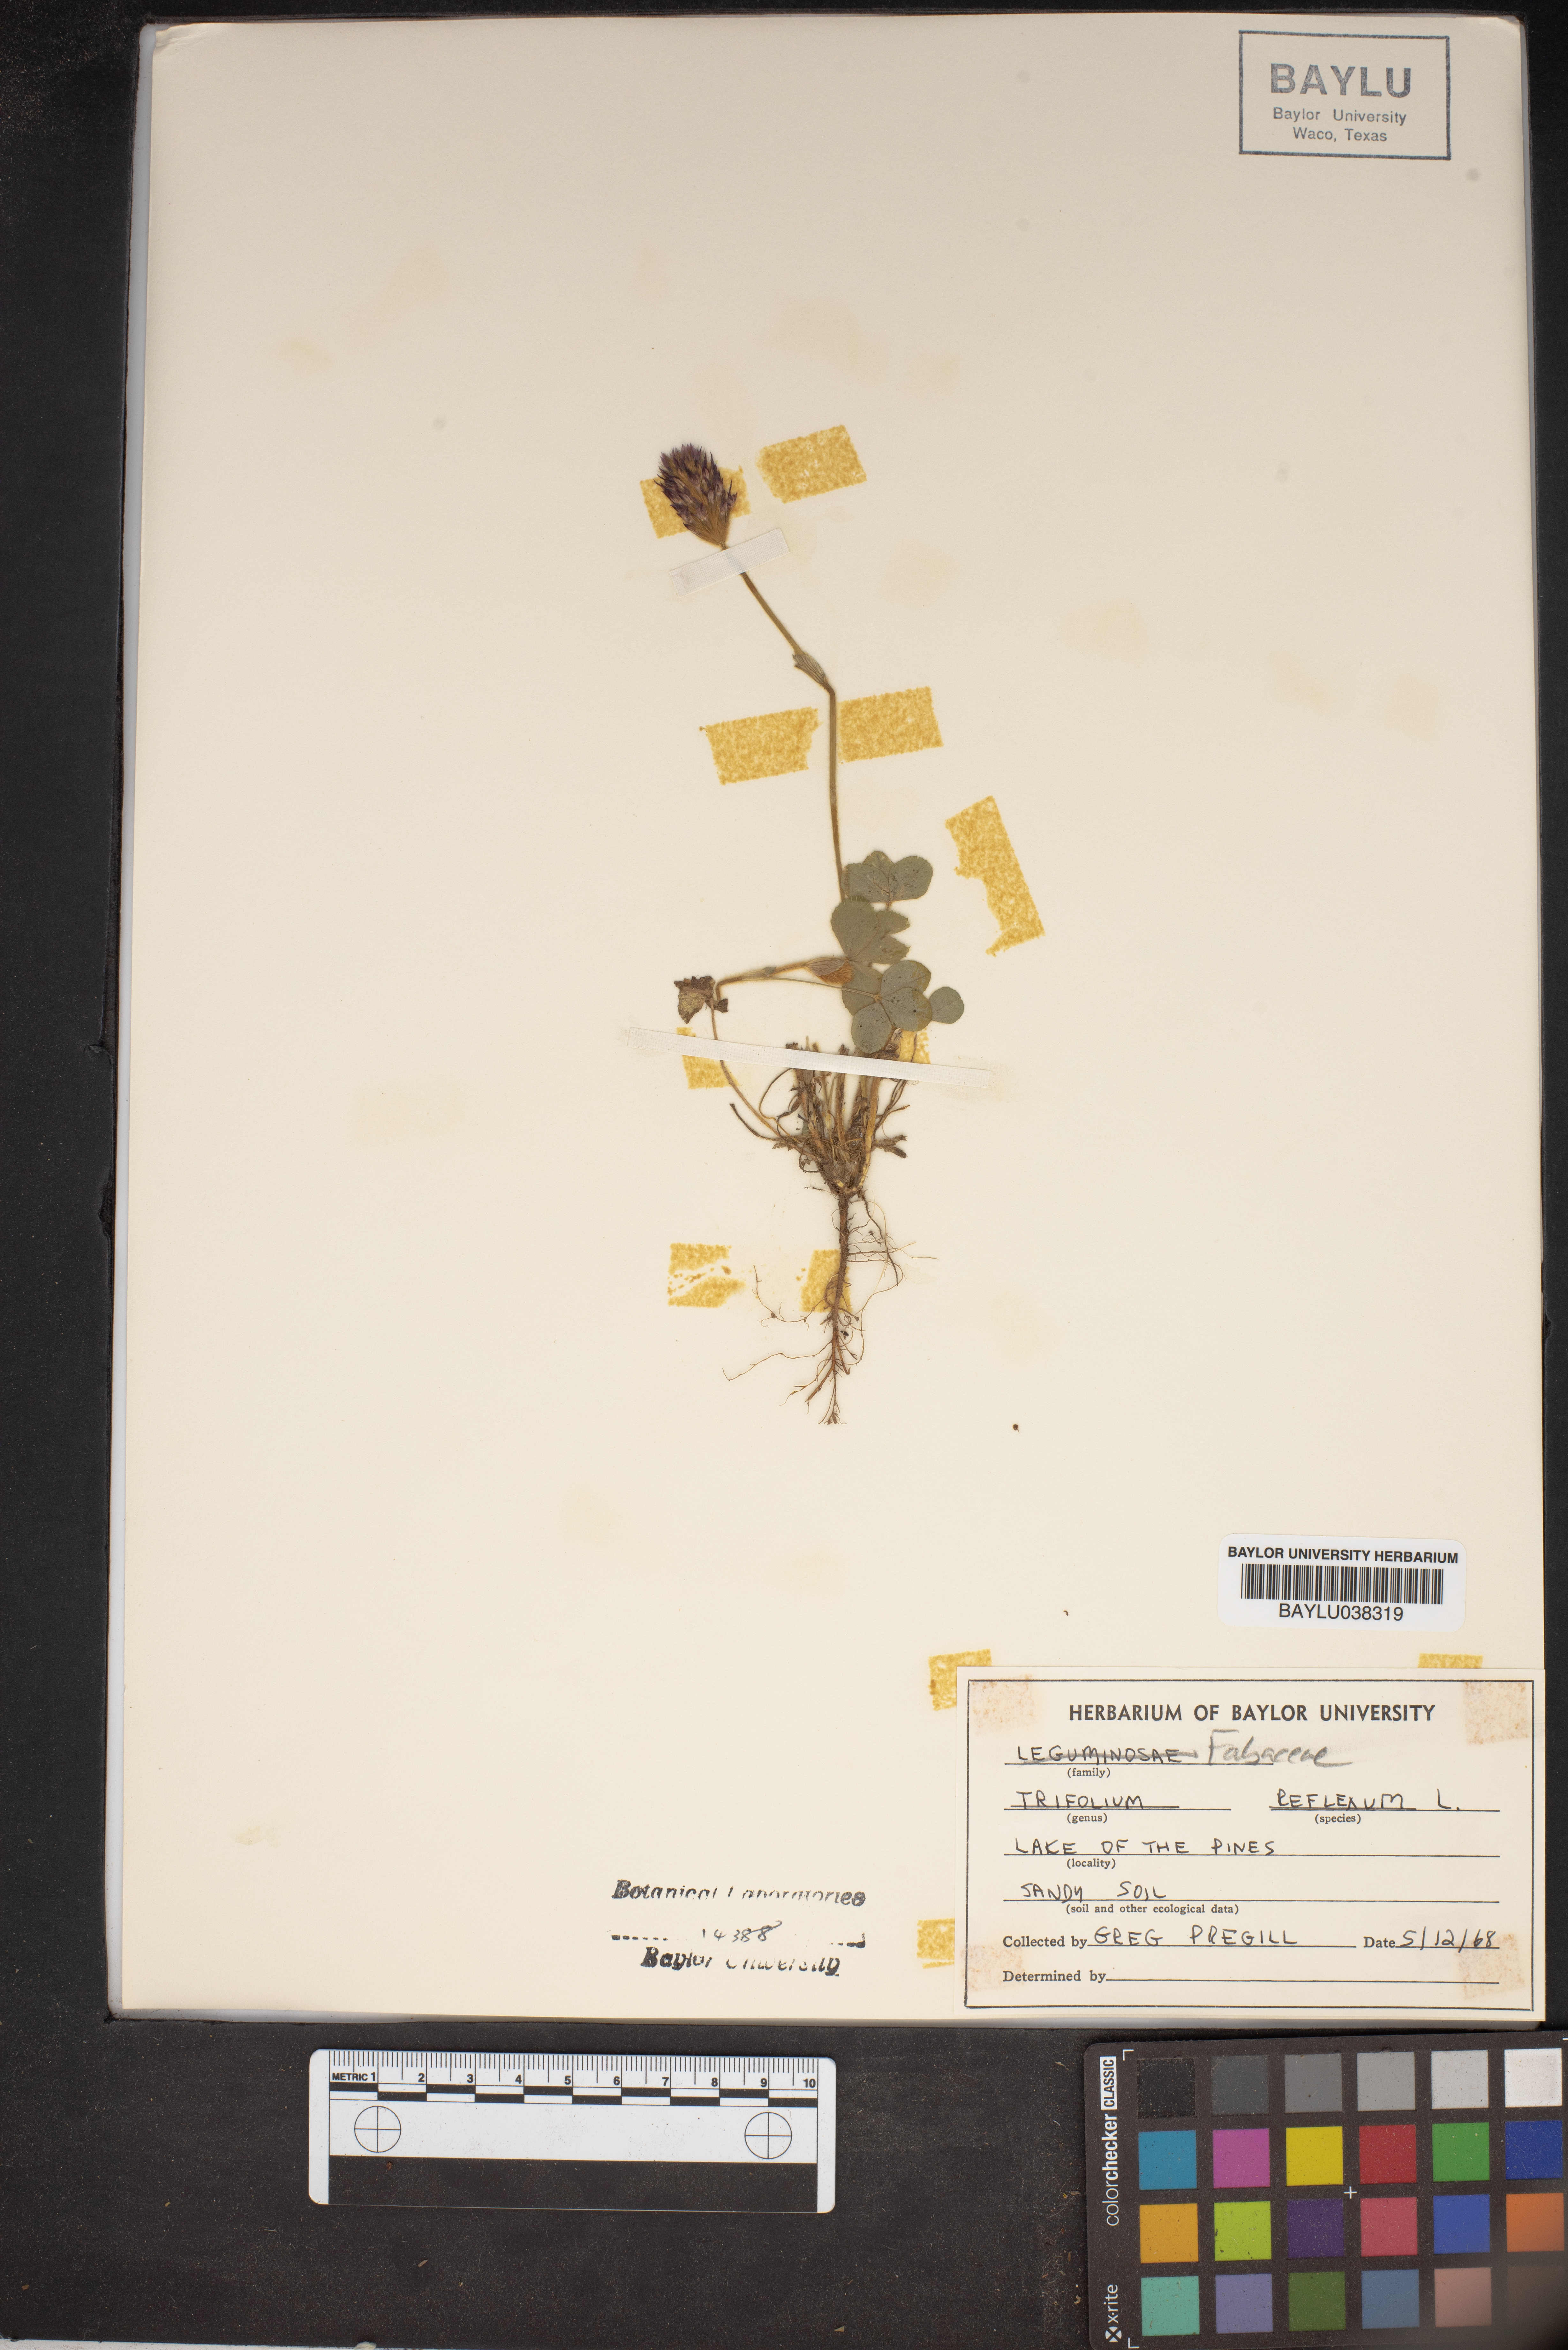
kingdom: Plantae
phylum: Tracheophyta
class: Magnoliopsida
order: Fabales
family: Fabaceae
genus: Trifolium
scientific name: Trifolium reflexum
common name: Buffalo clover
